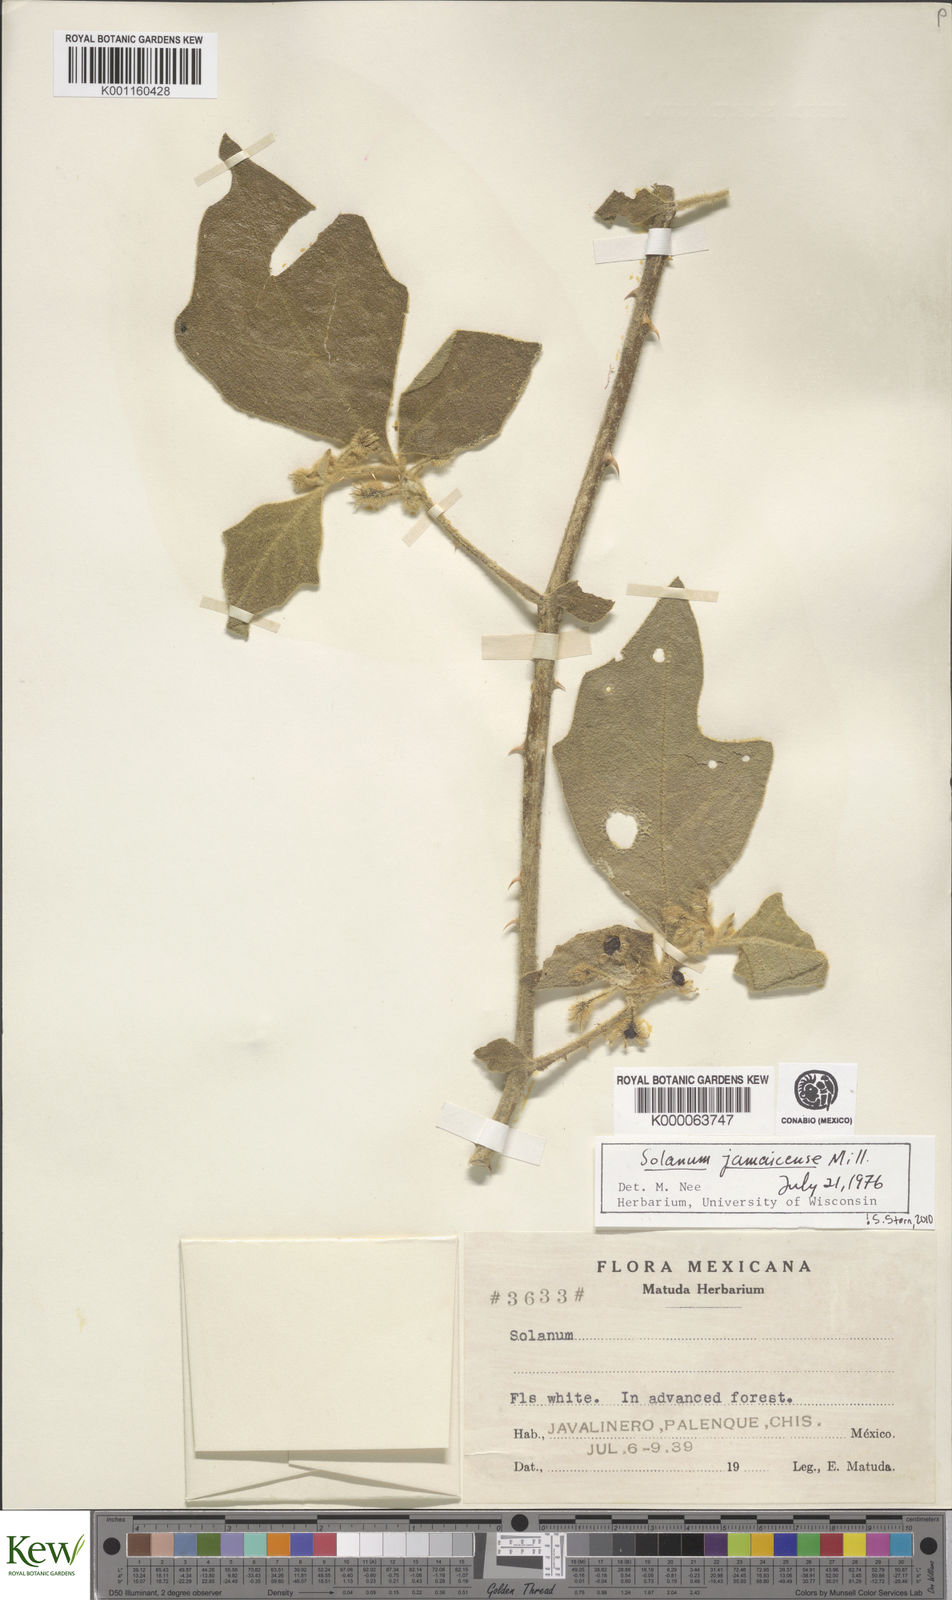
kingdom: Plantae
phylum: Tracheophyta
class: Magnoliopsida
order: Solanales
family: Solanaceae
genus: Solanum
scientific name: Solanum jamaicense
